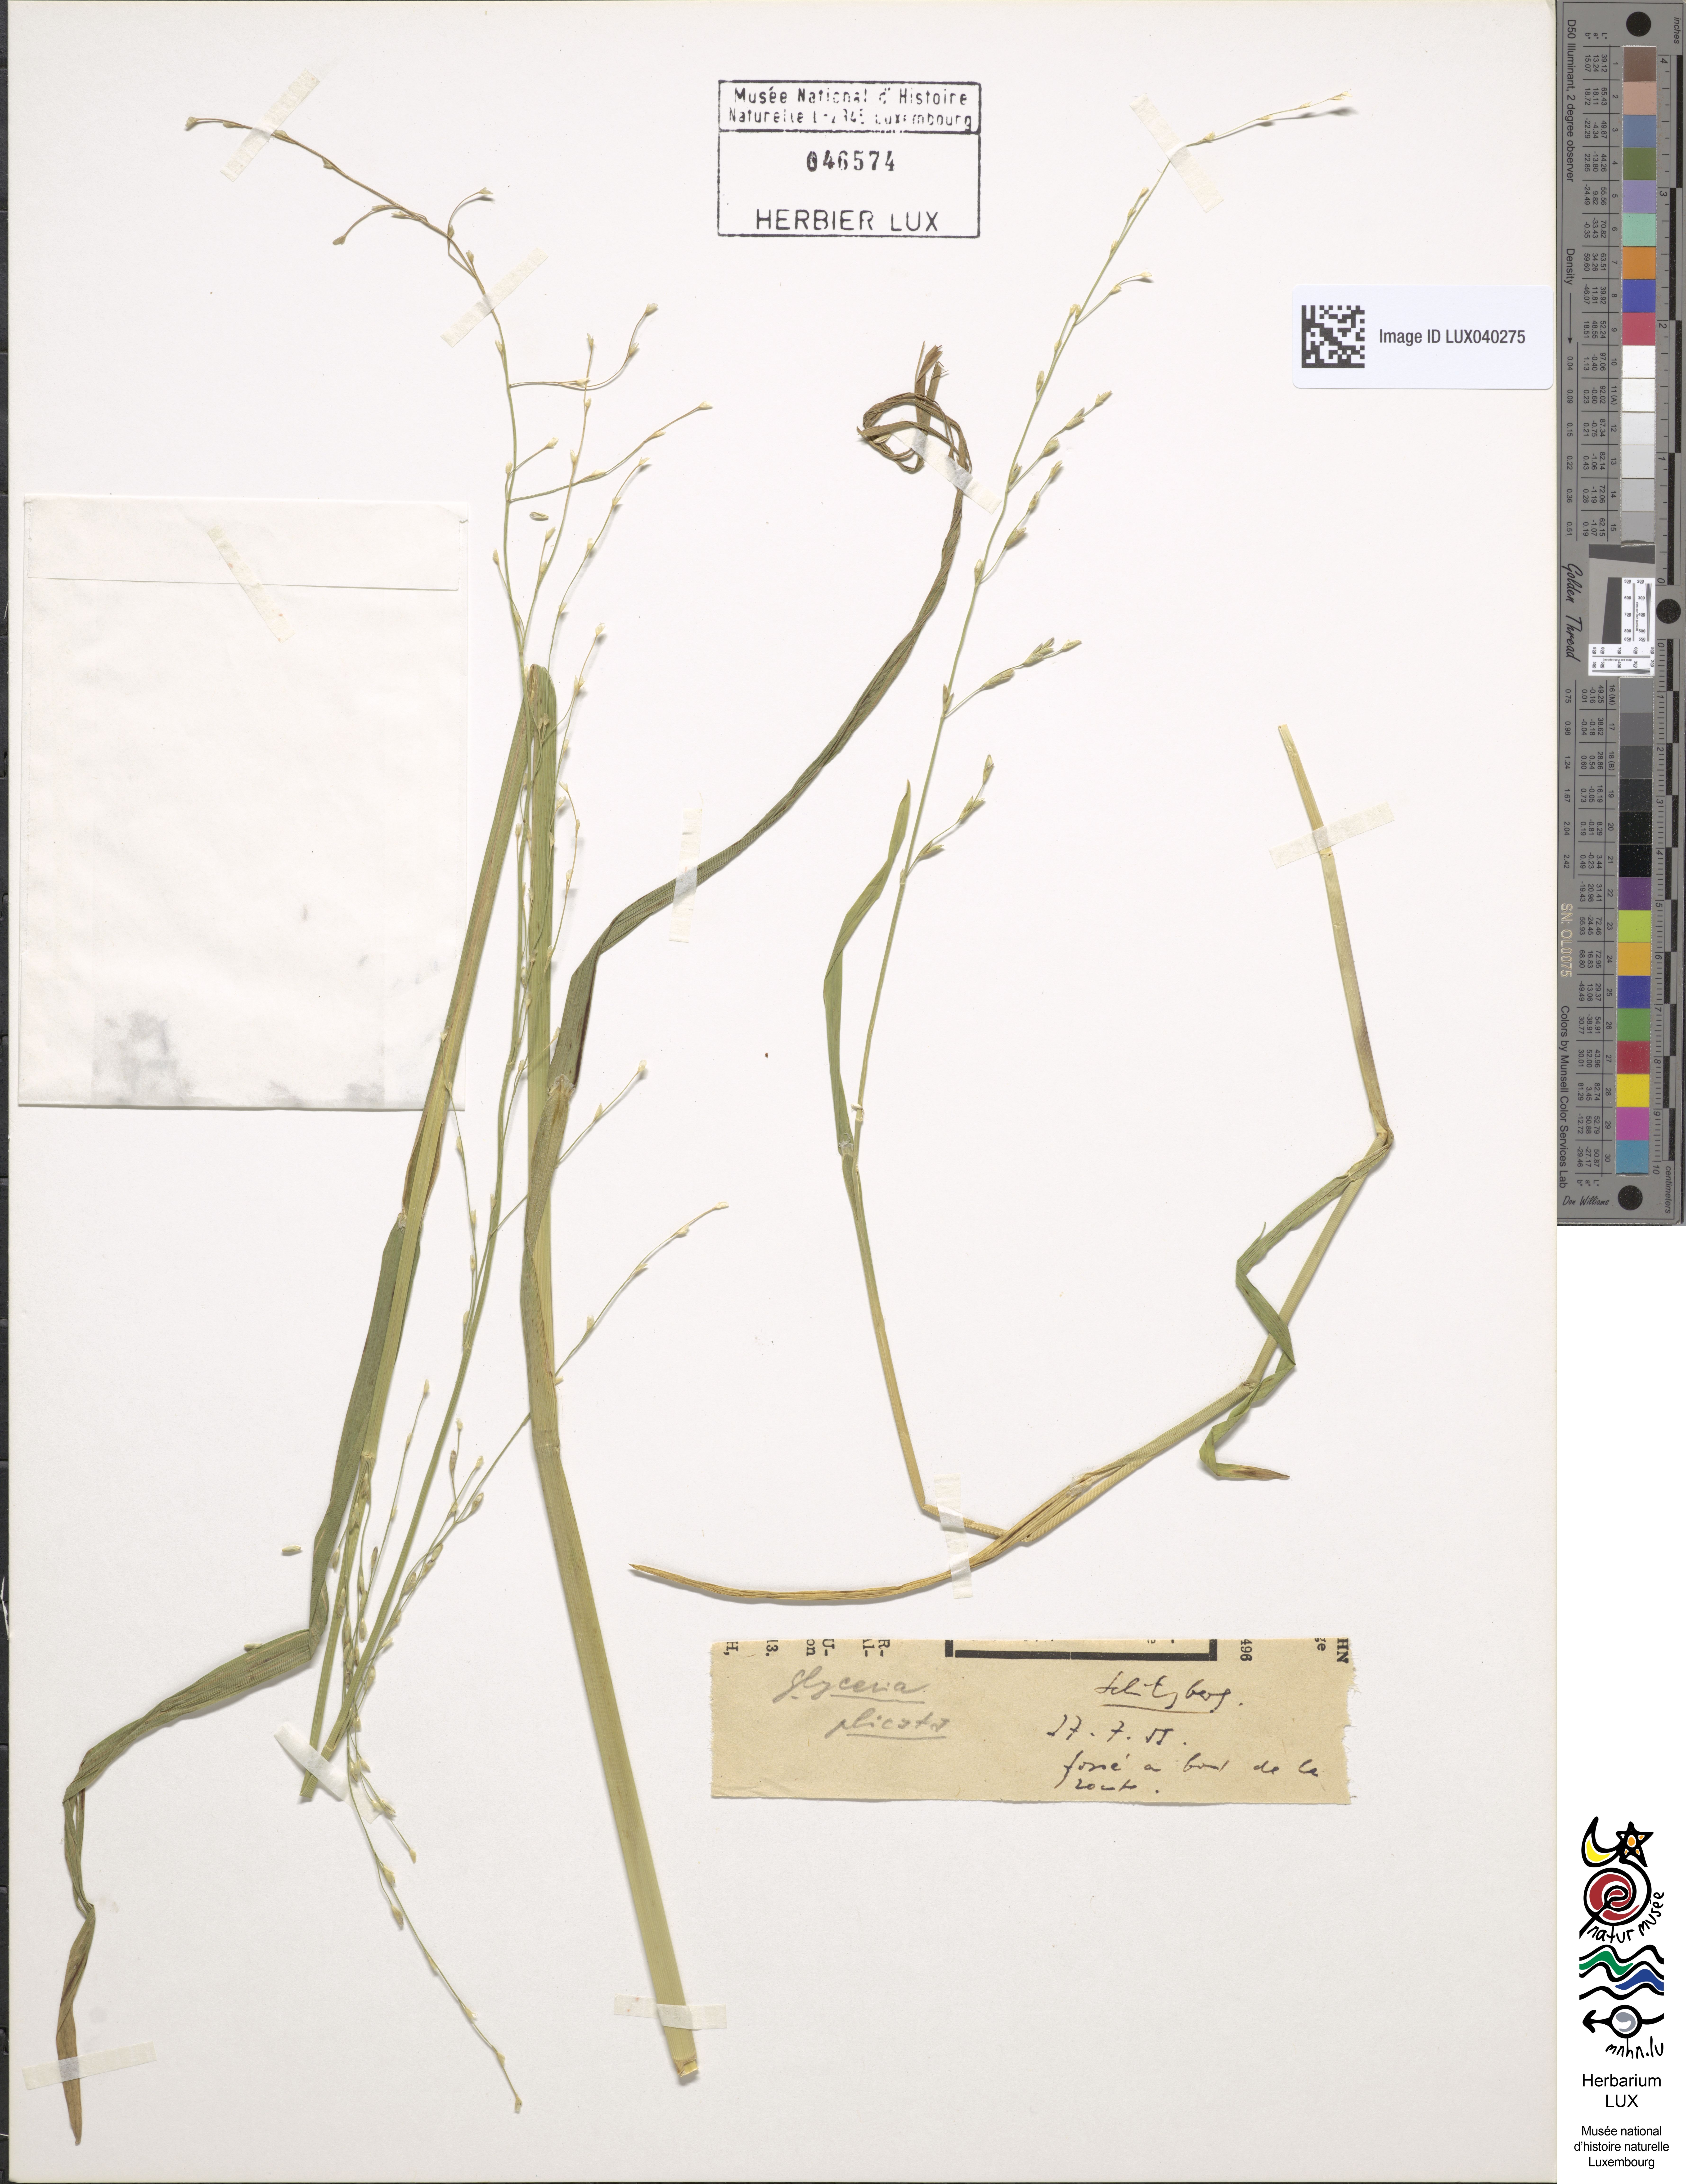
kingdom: Plantae
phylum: Tracheophyta
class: Liliopsida
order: Poales
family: Poaceae
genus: Glyceria
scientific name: Glyceria notata
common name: Plicate sweet-grass
